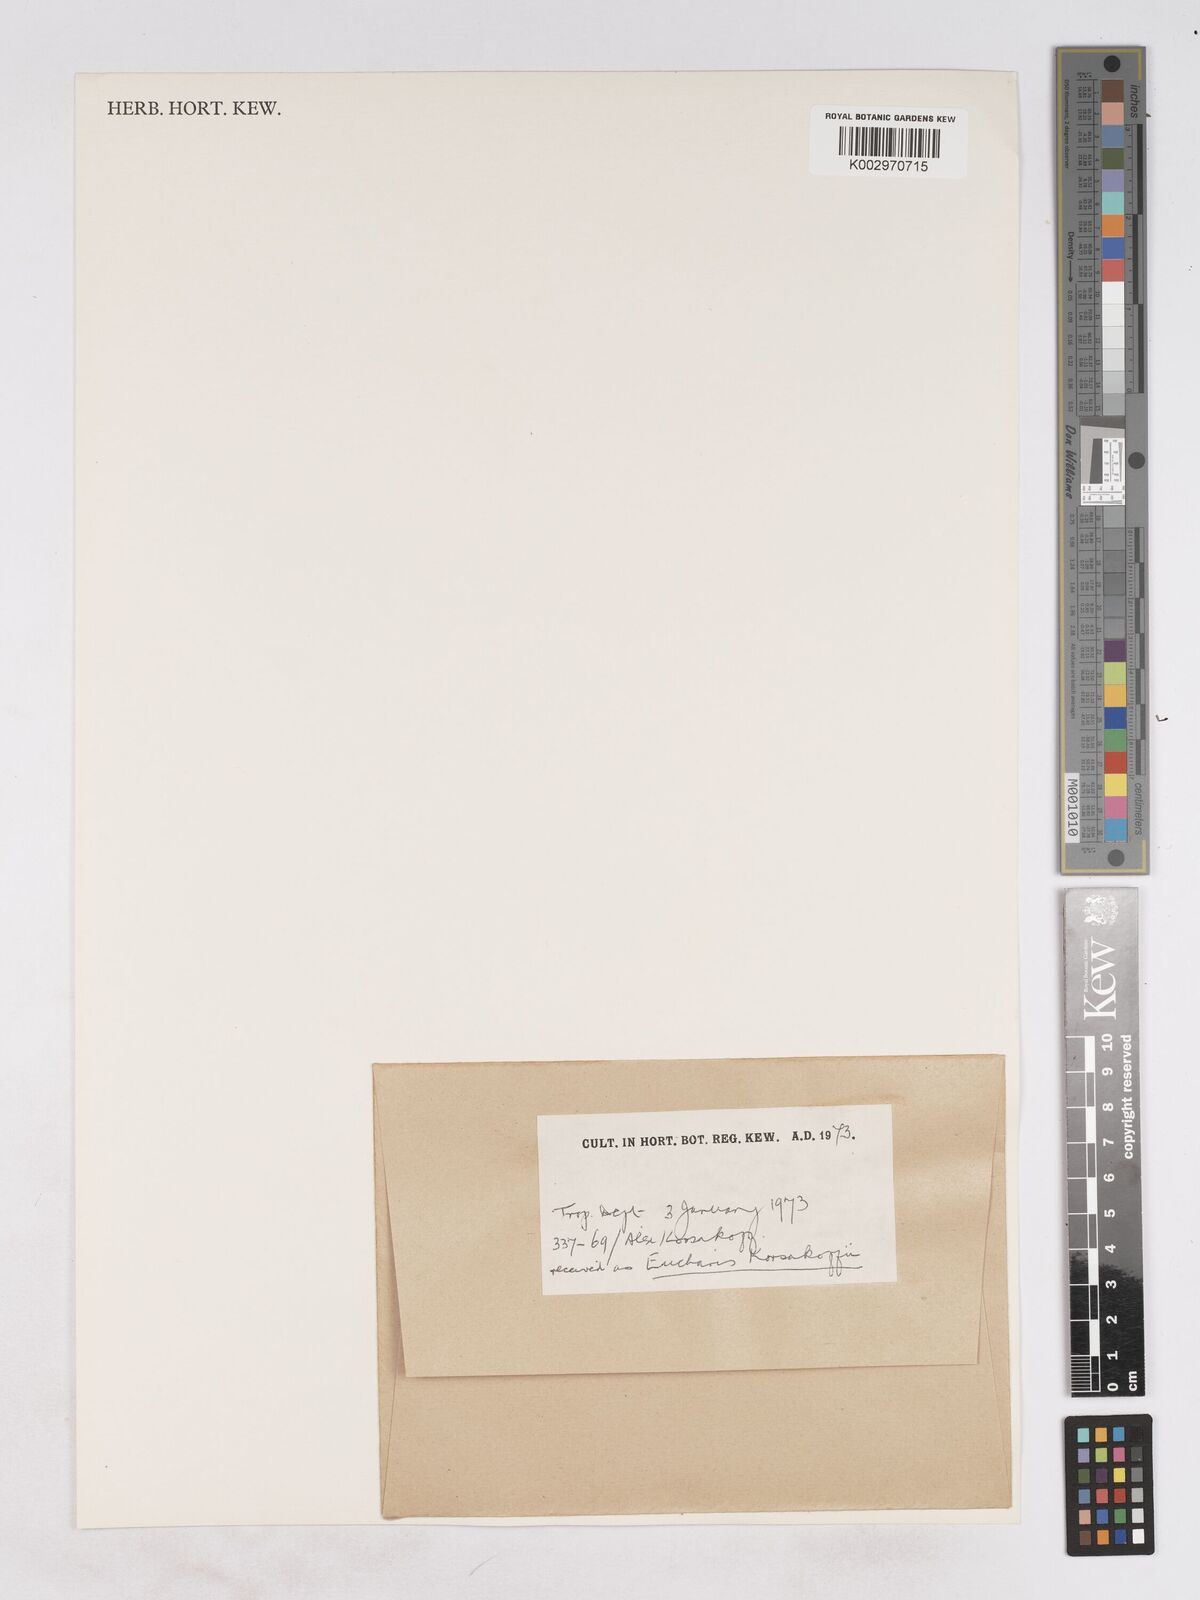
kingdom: Plantae
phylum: Tracheophyta
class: Liliopsida
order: Asparagales
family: Amaryllidaceae
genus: Urceolina
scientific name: Urceolina korsakoffii
